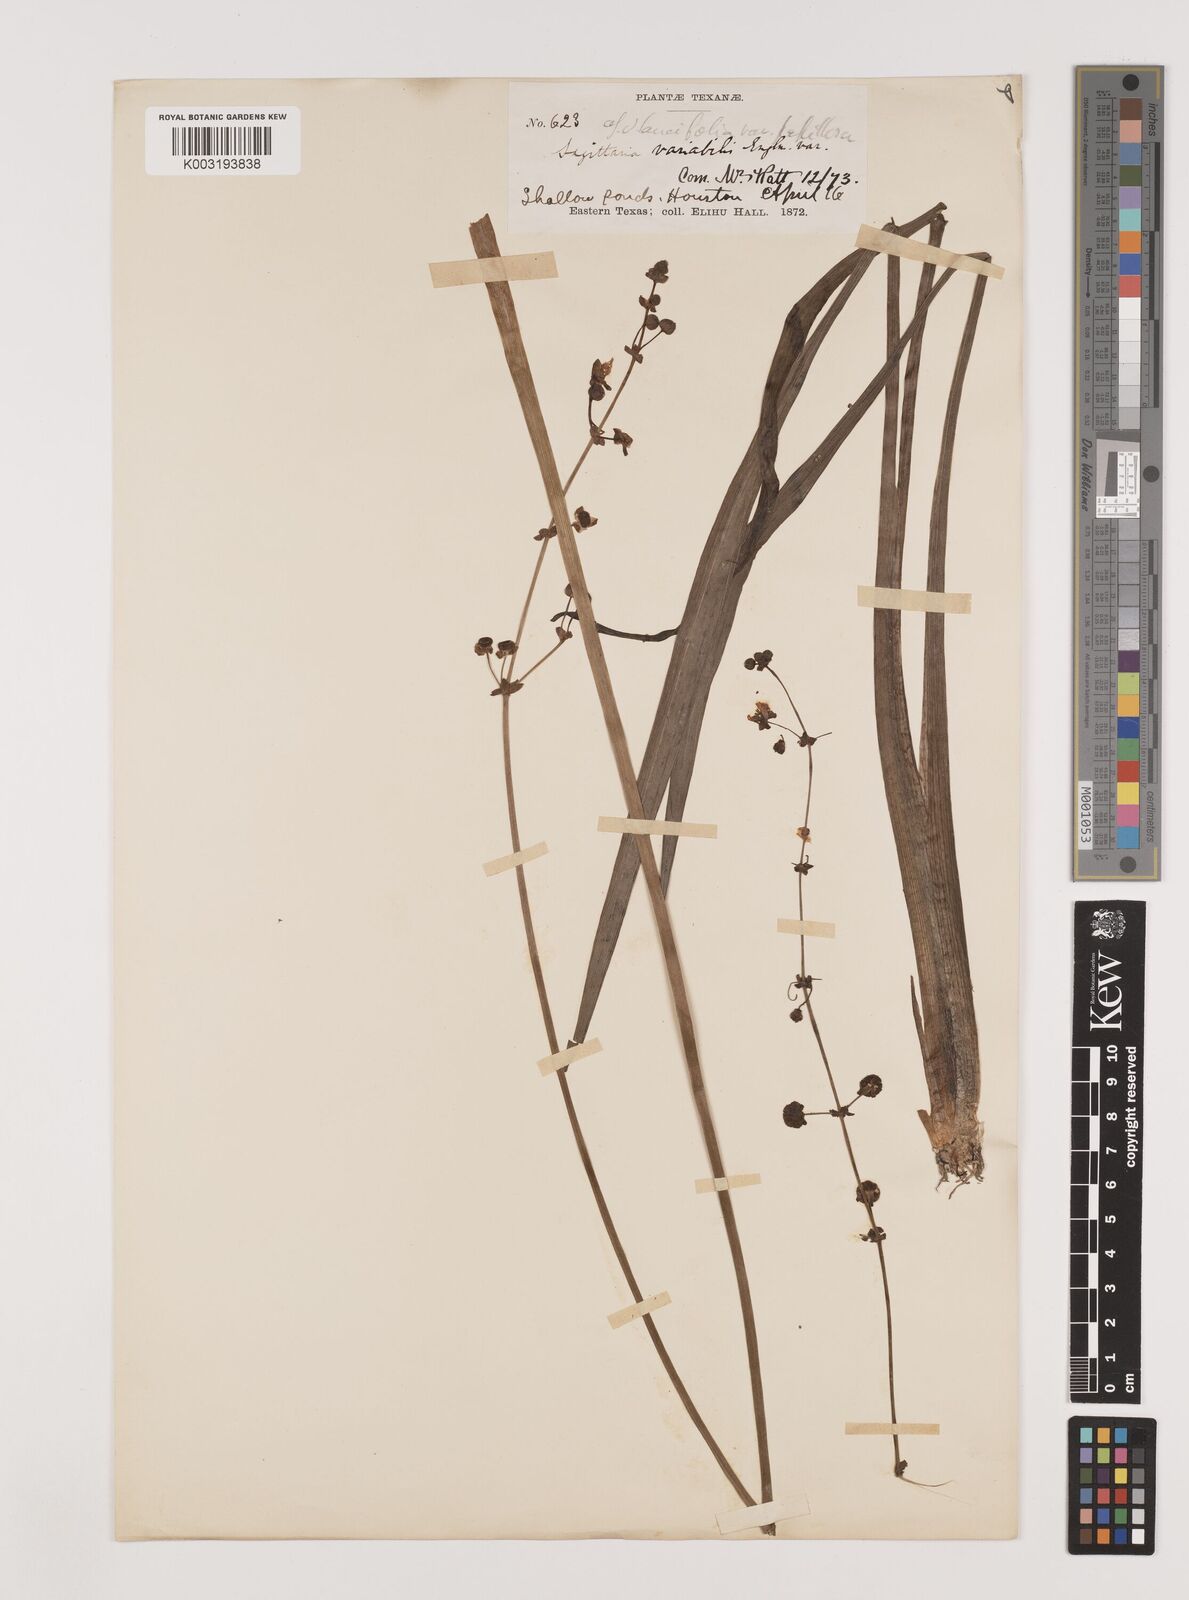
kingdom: Plantae
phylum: Tracheophyta
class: Liliopsida
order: Alismatales
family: Alismataceae
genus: Sagittaria
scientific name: Sagittaria papillosa
